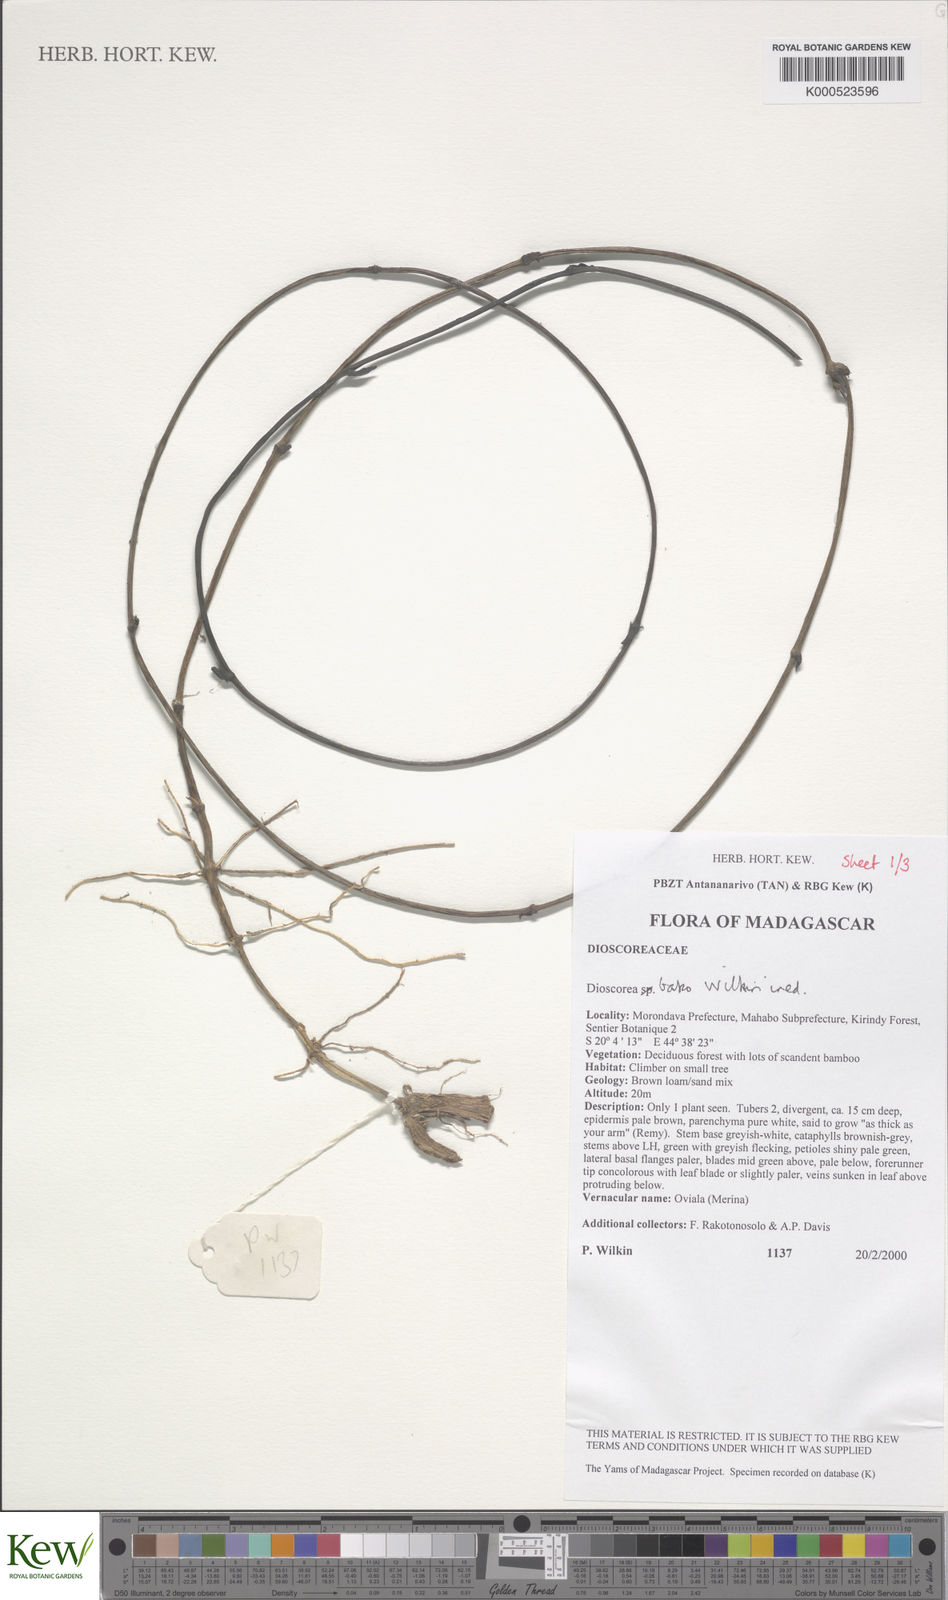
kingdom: Plantae
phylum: Tracheophyta
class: Liliopsida
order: Dioscoreales
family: Dioscoreaceae
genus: Dioscorea
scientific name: Dioscorea bako
